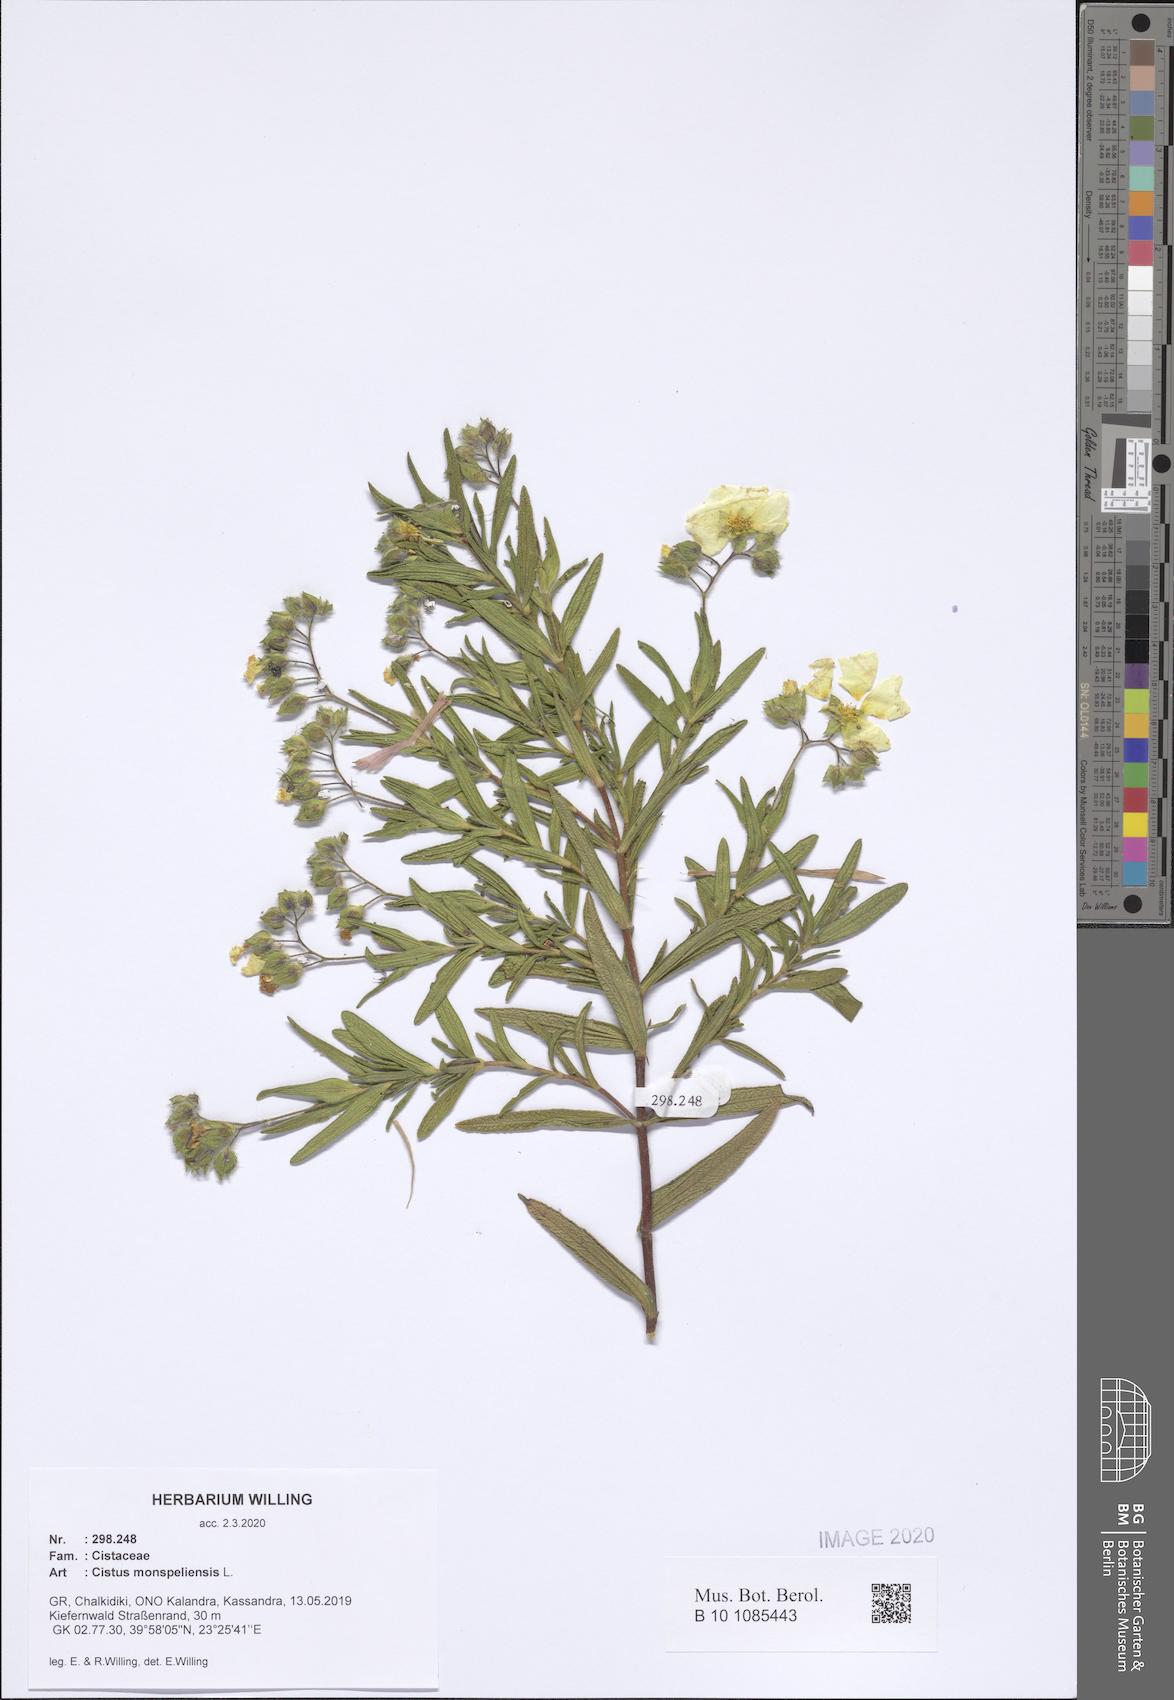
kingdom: Plantae
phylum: Tracheophyta
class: Magnoliopsida
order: Malvales
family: Cistaceae
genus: Cistus
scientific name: Cistus monspeliensis
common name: Montpelier cistus
